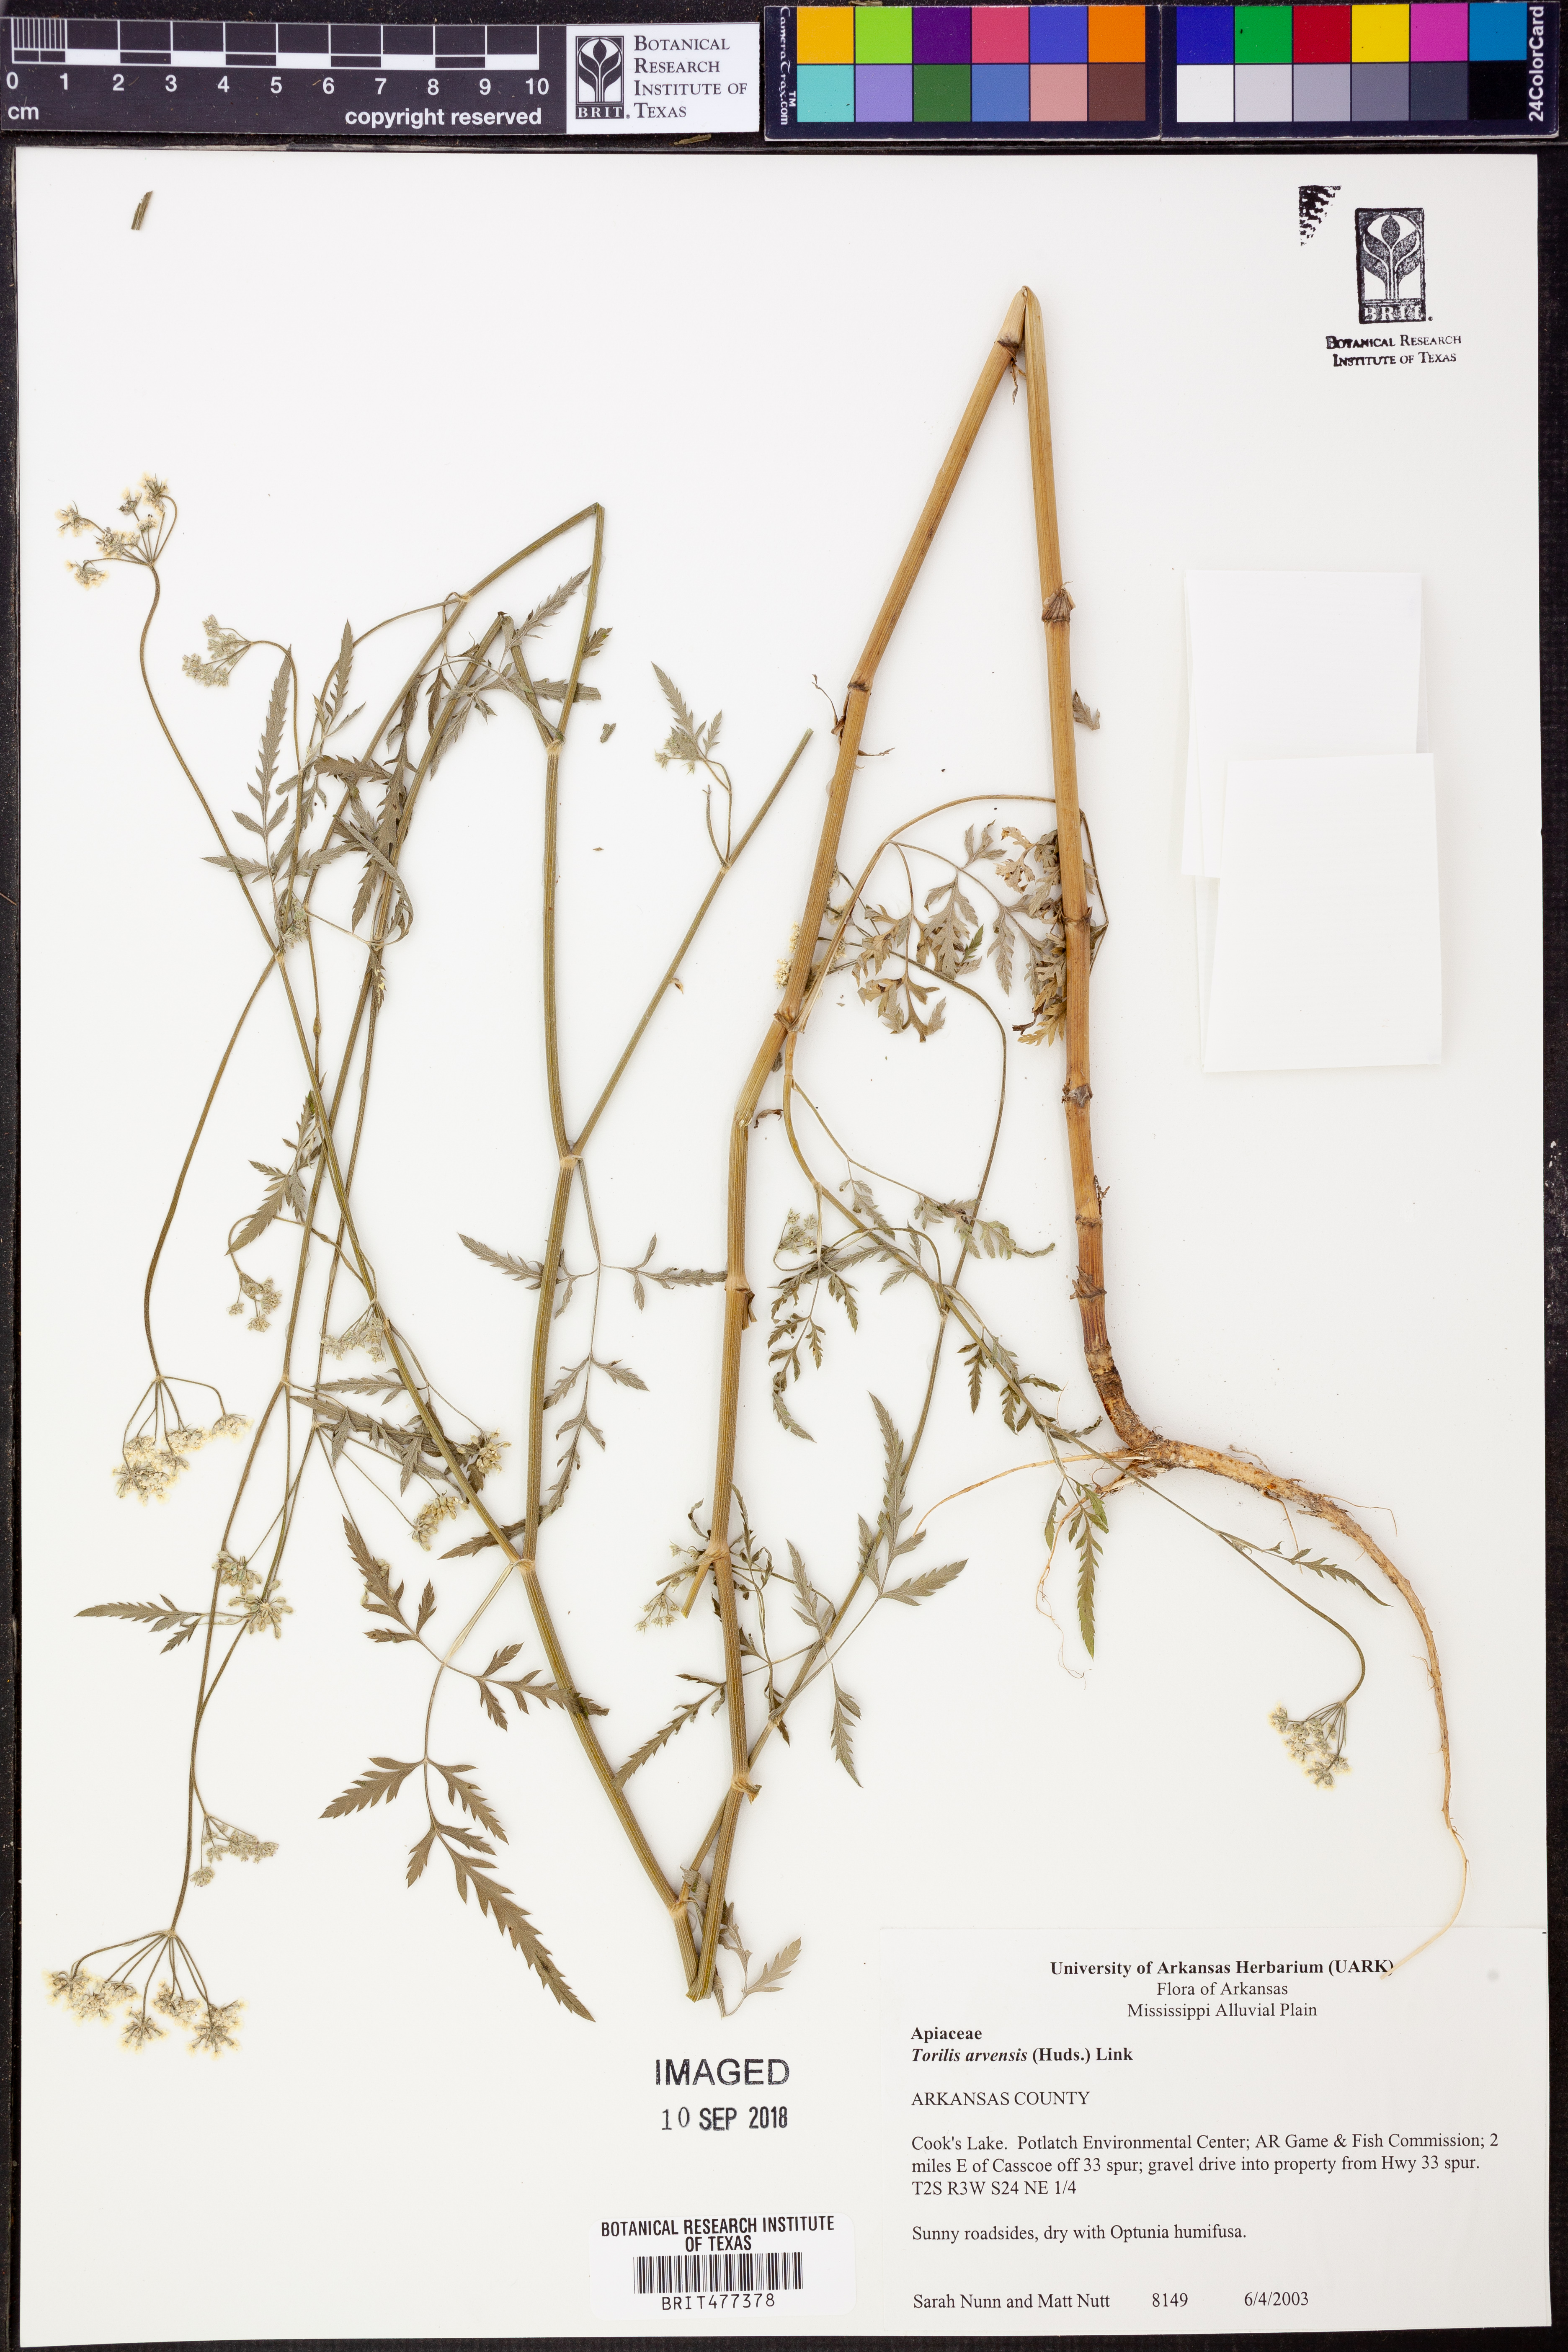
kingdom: Plantae
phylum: Tracheophyta
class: Magnoliopsida
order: Apiales
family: Apiaceae
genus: Torilis
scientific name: Torilis arvensis
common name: Spreading hedge-parsley
